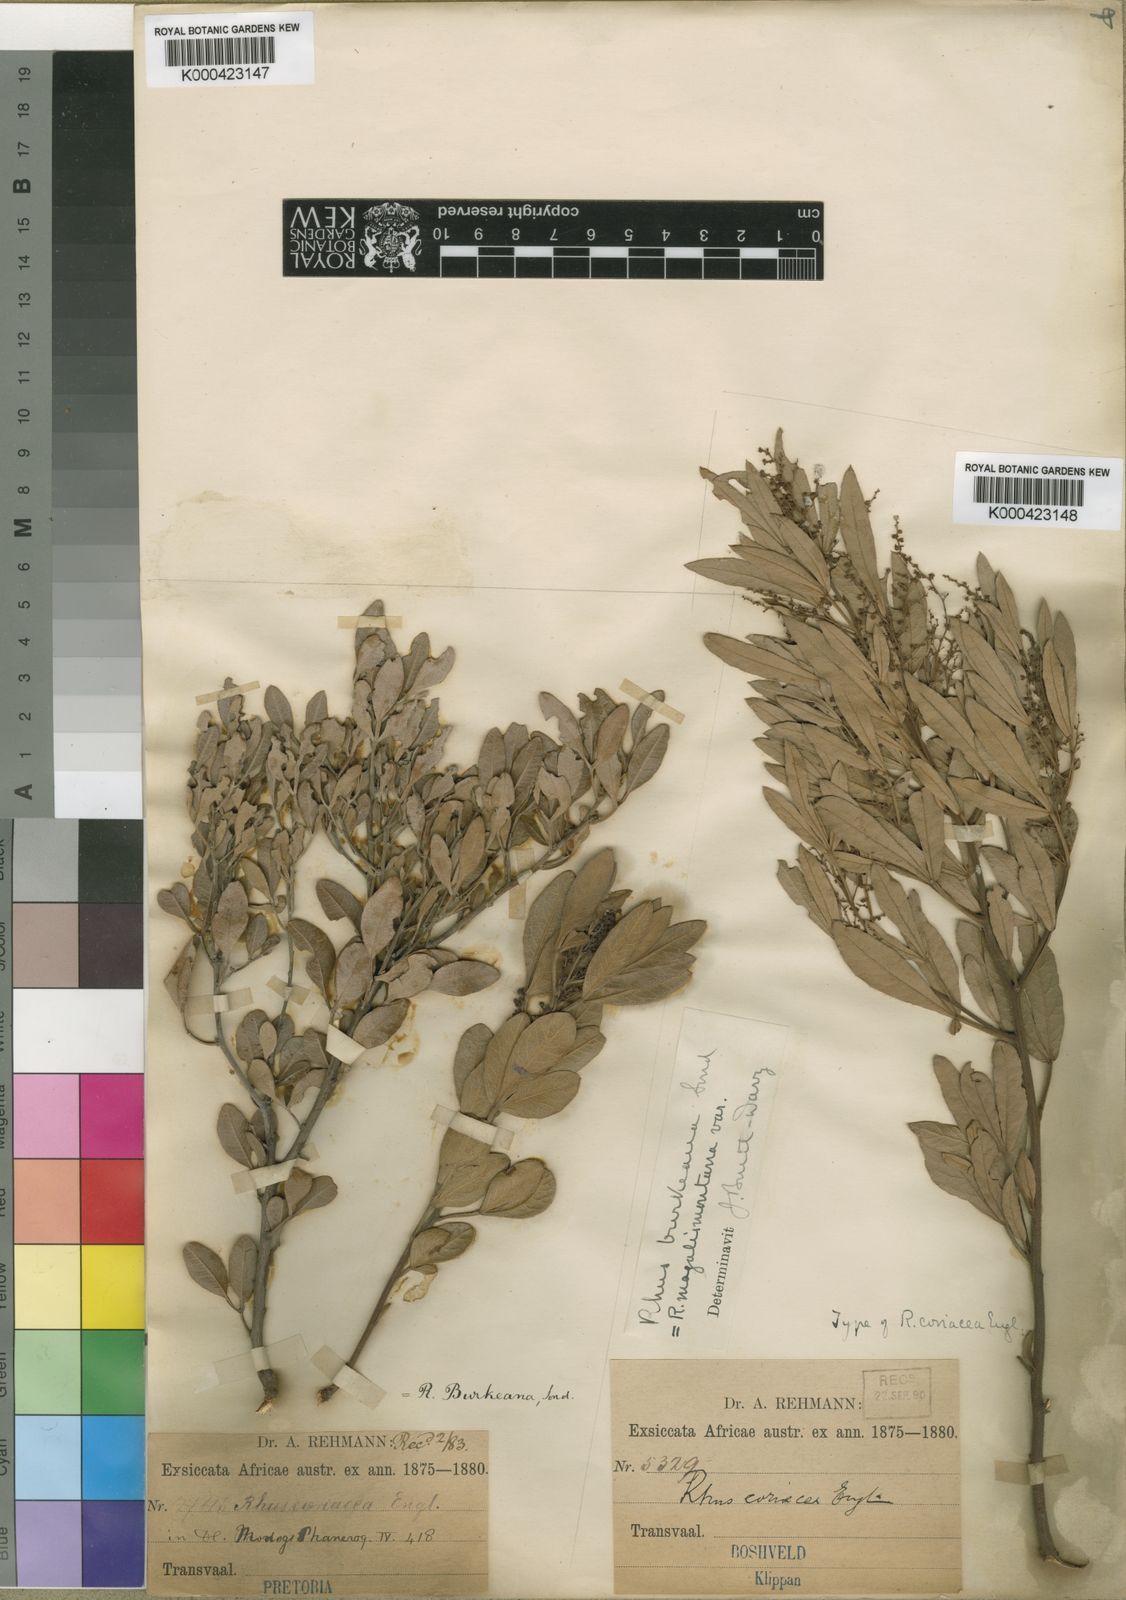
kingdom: Plantae
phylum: Tracheophyta
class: Magnoliopsida
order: Sapindales
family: Anacardiaceae
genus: Searsia
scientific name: Searsia magalismontana
